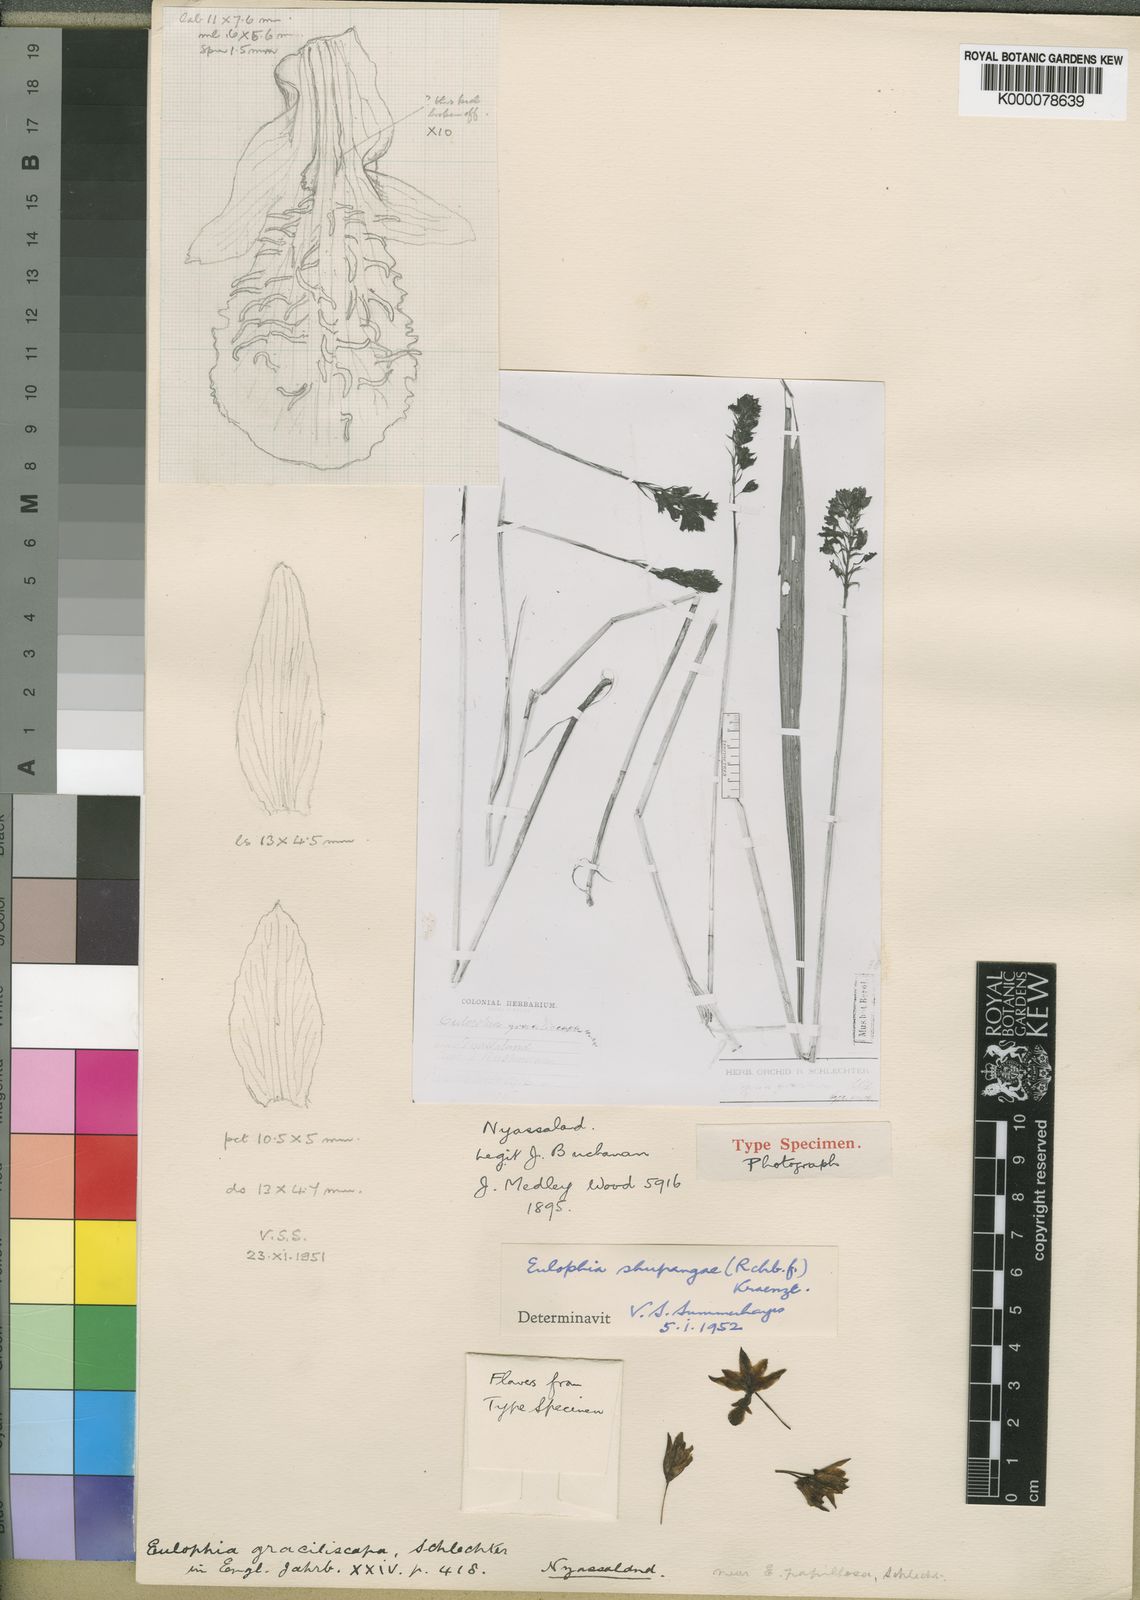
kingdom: Plantae
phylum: Tracheophyta
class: Liliopsida
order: Asparagales
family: Orchidaceae
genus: Eulophia
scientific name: Eulophia odontoglossa
